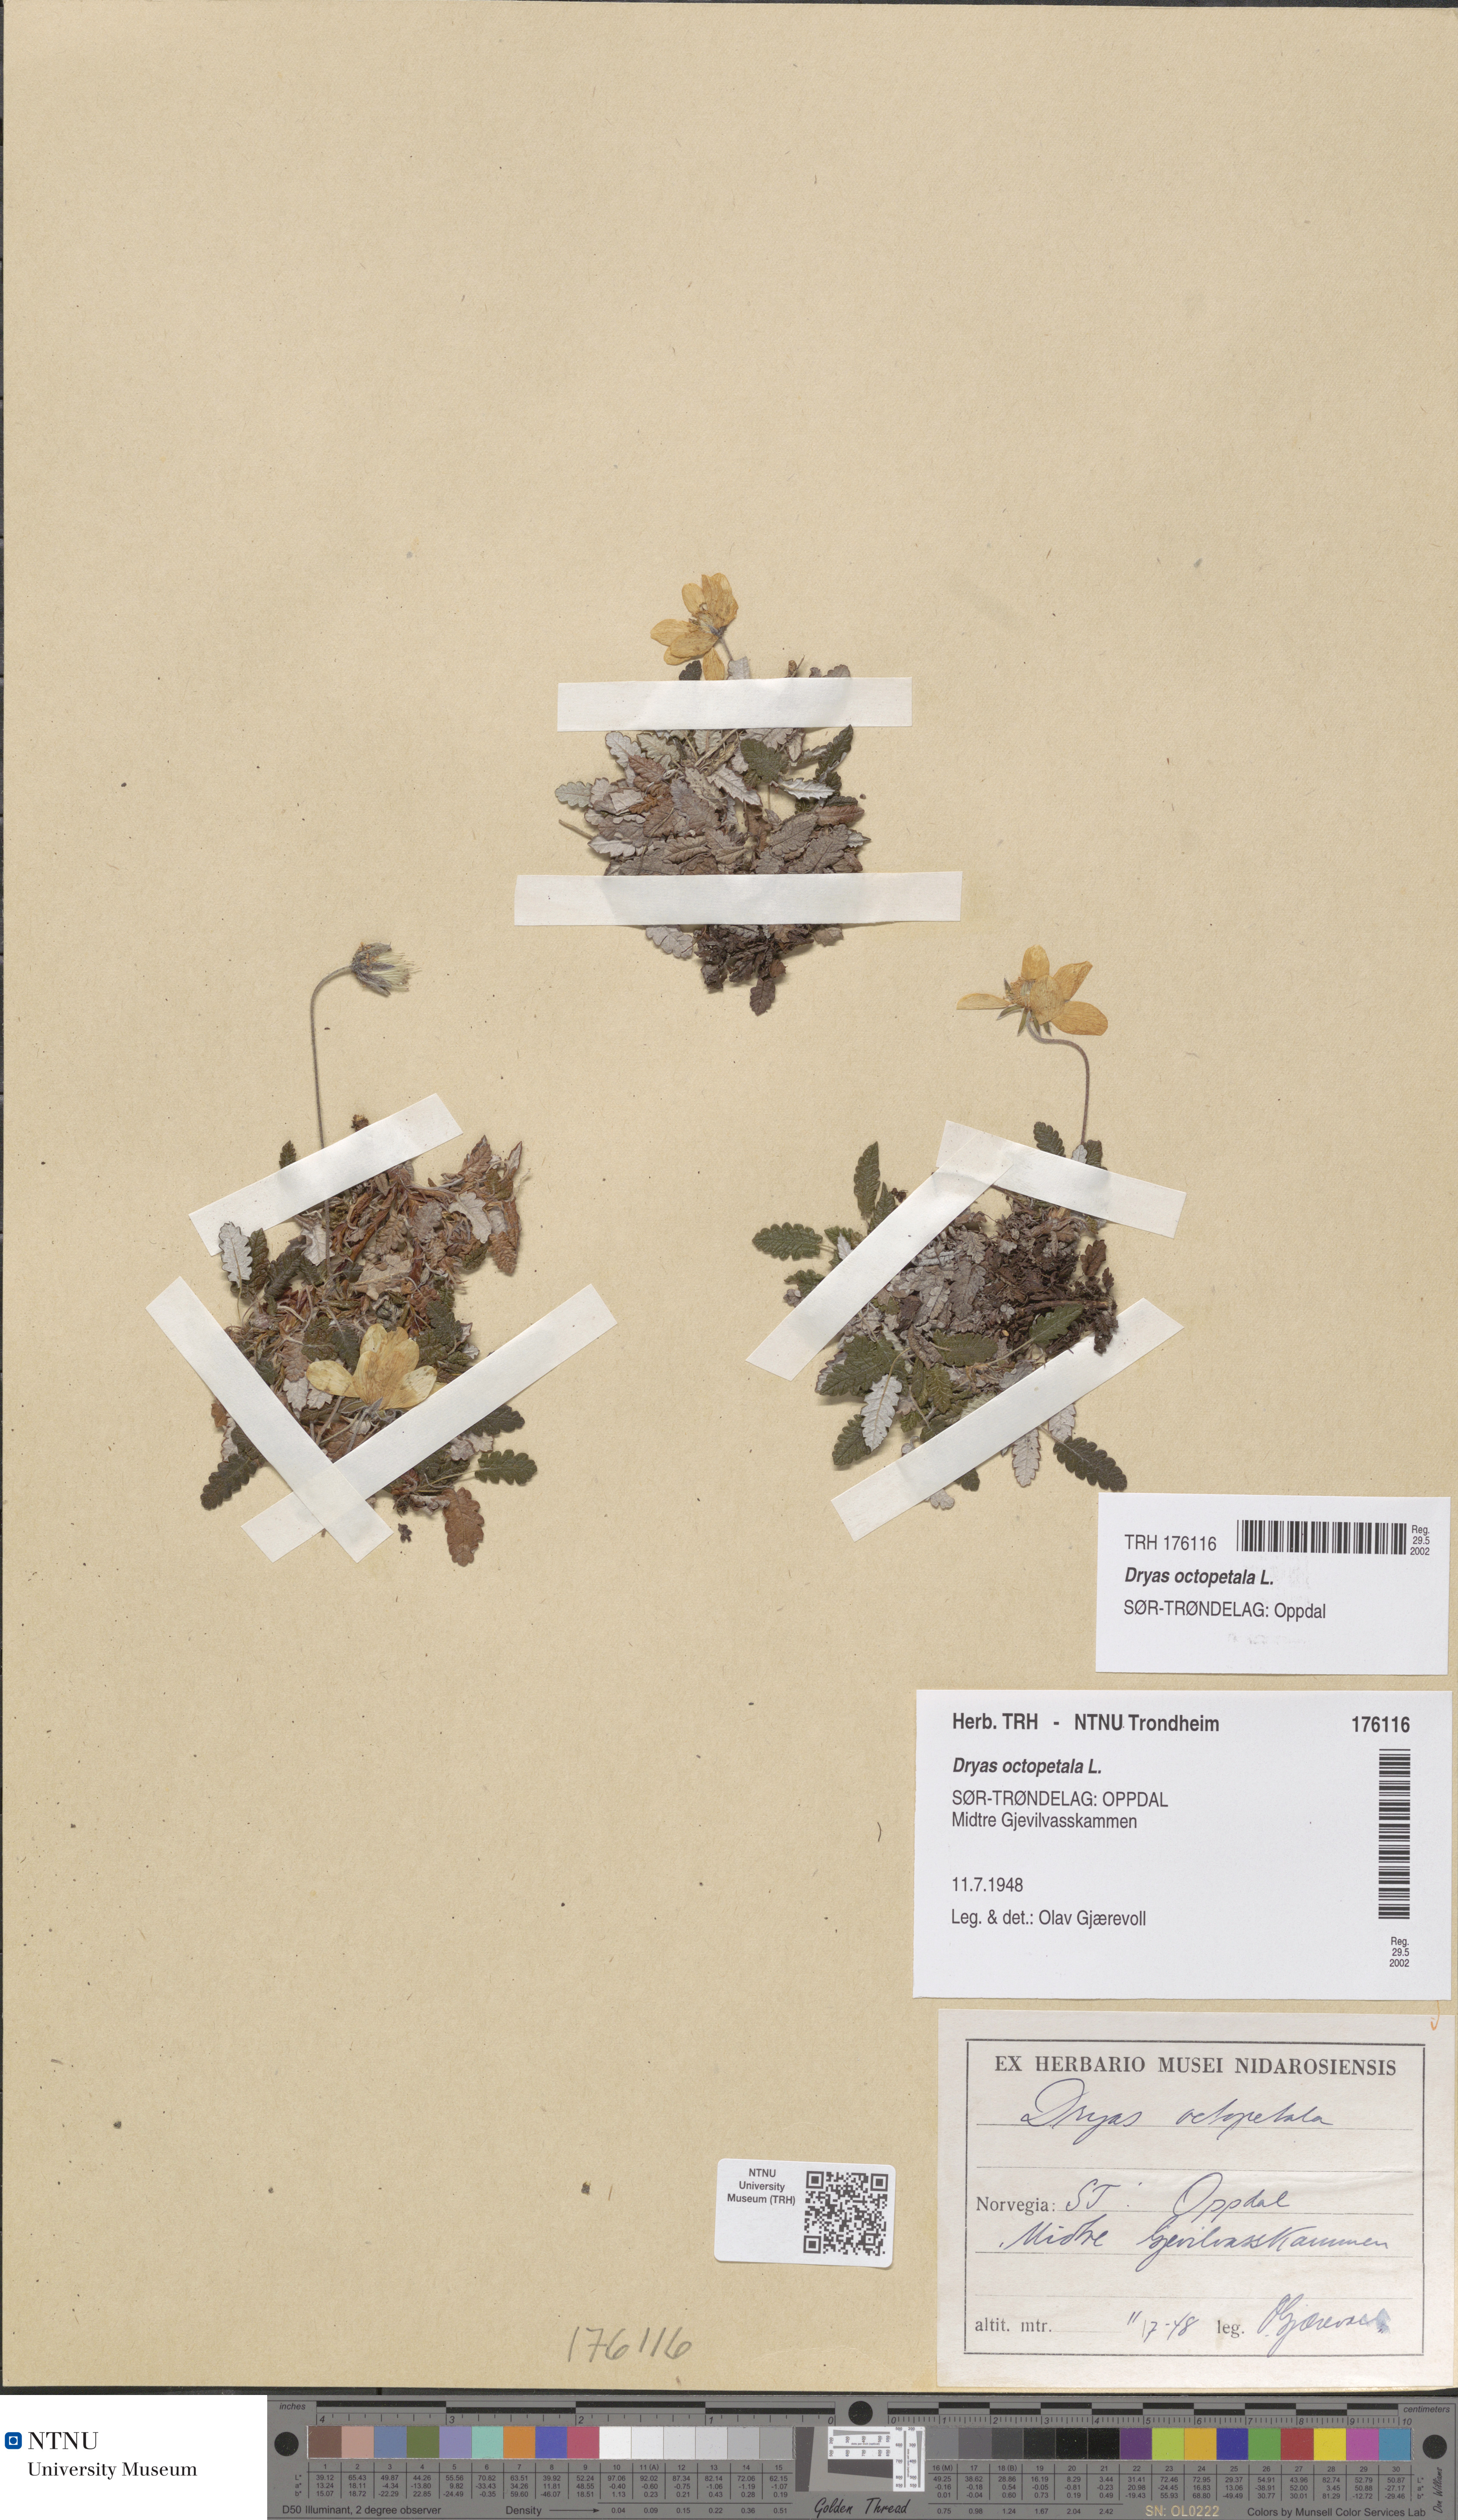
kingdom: Plantae
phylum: Tracheophyta
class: Magnoliopsida
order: Rosales
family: Rosaceae
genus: Dryas
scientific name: Dryas octopetala
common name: Eight-petal mountain-avens
